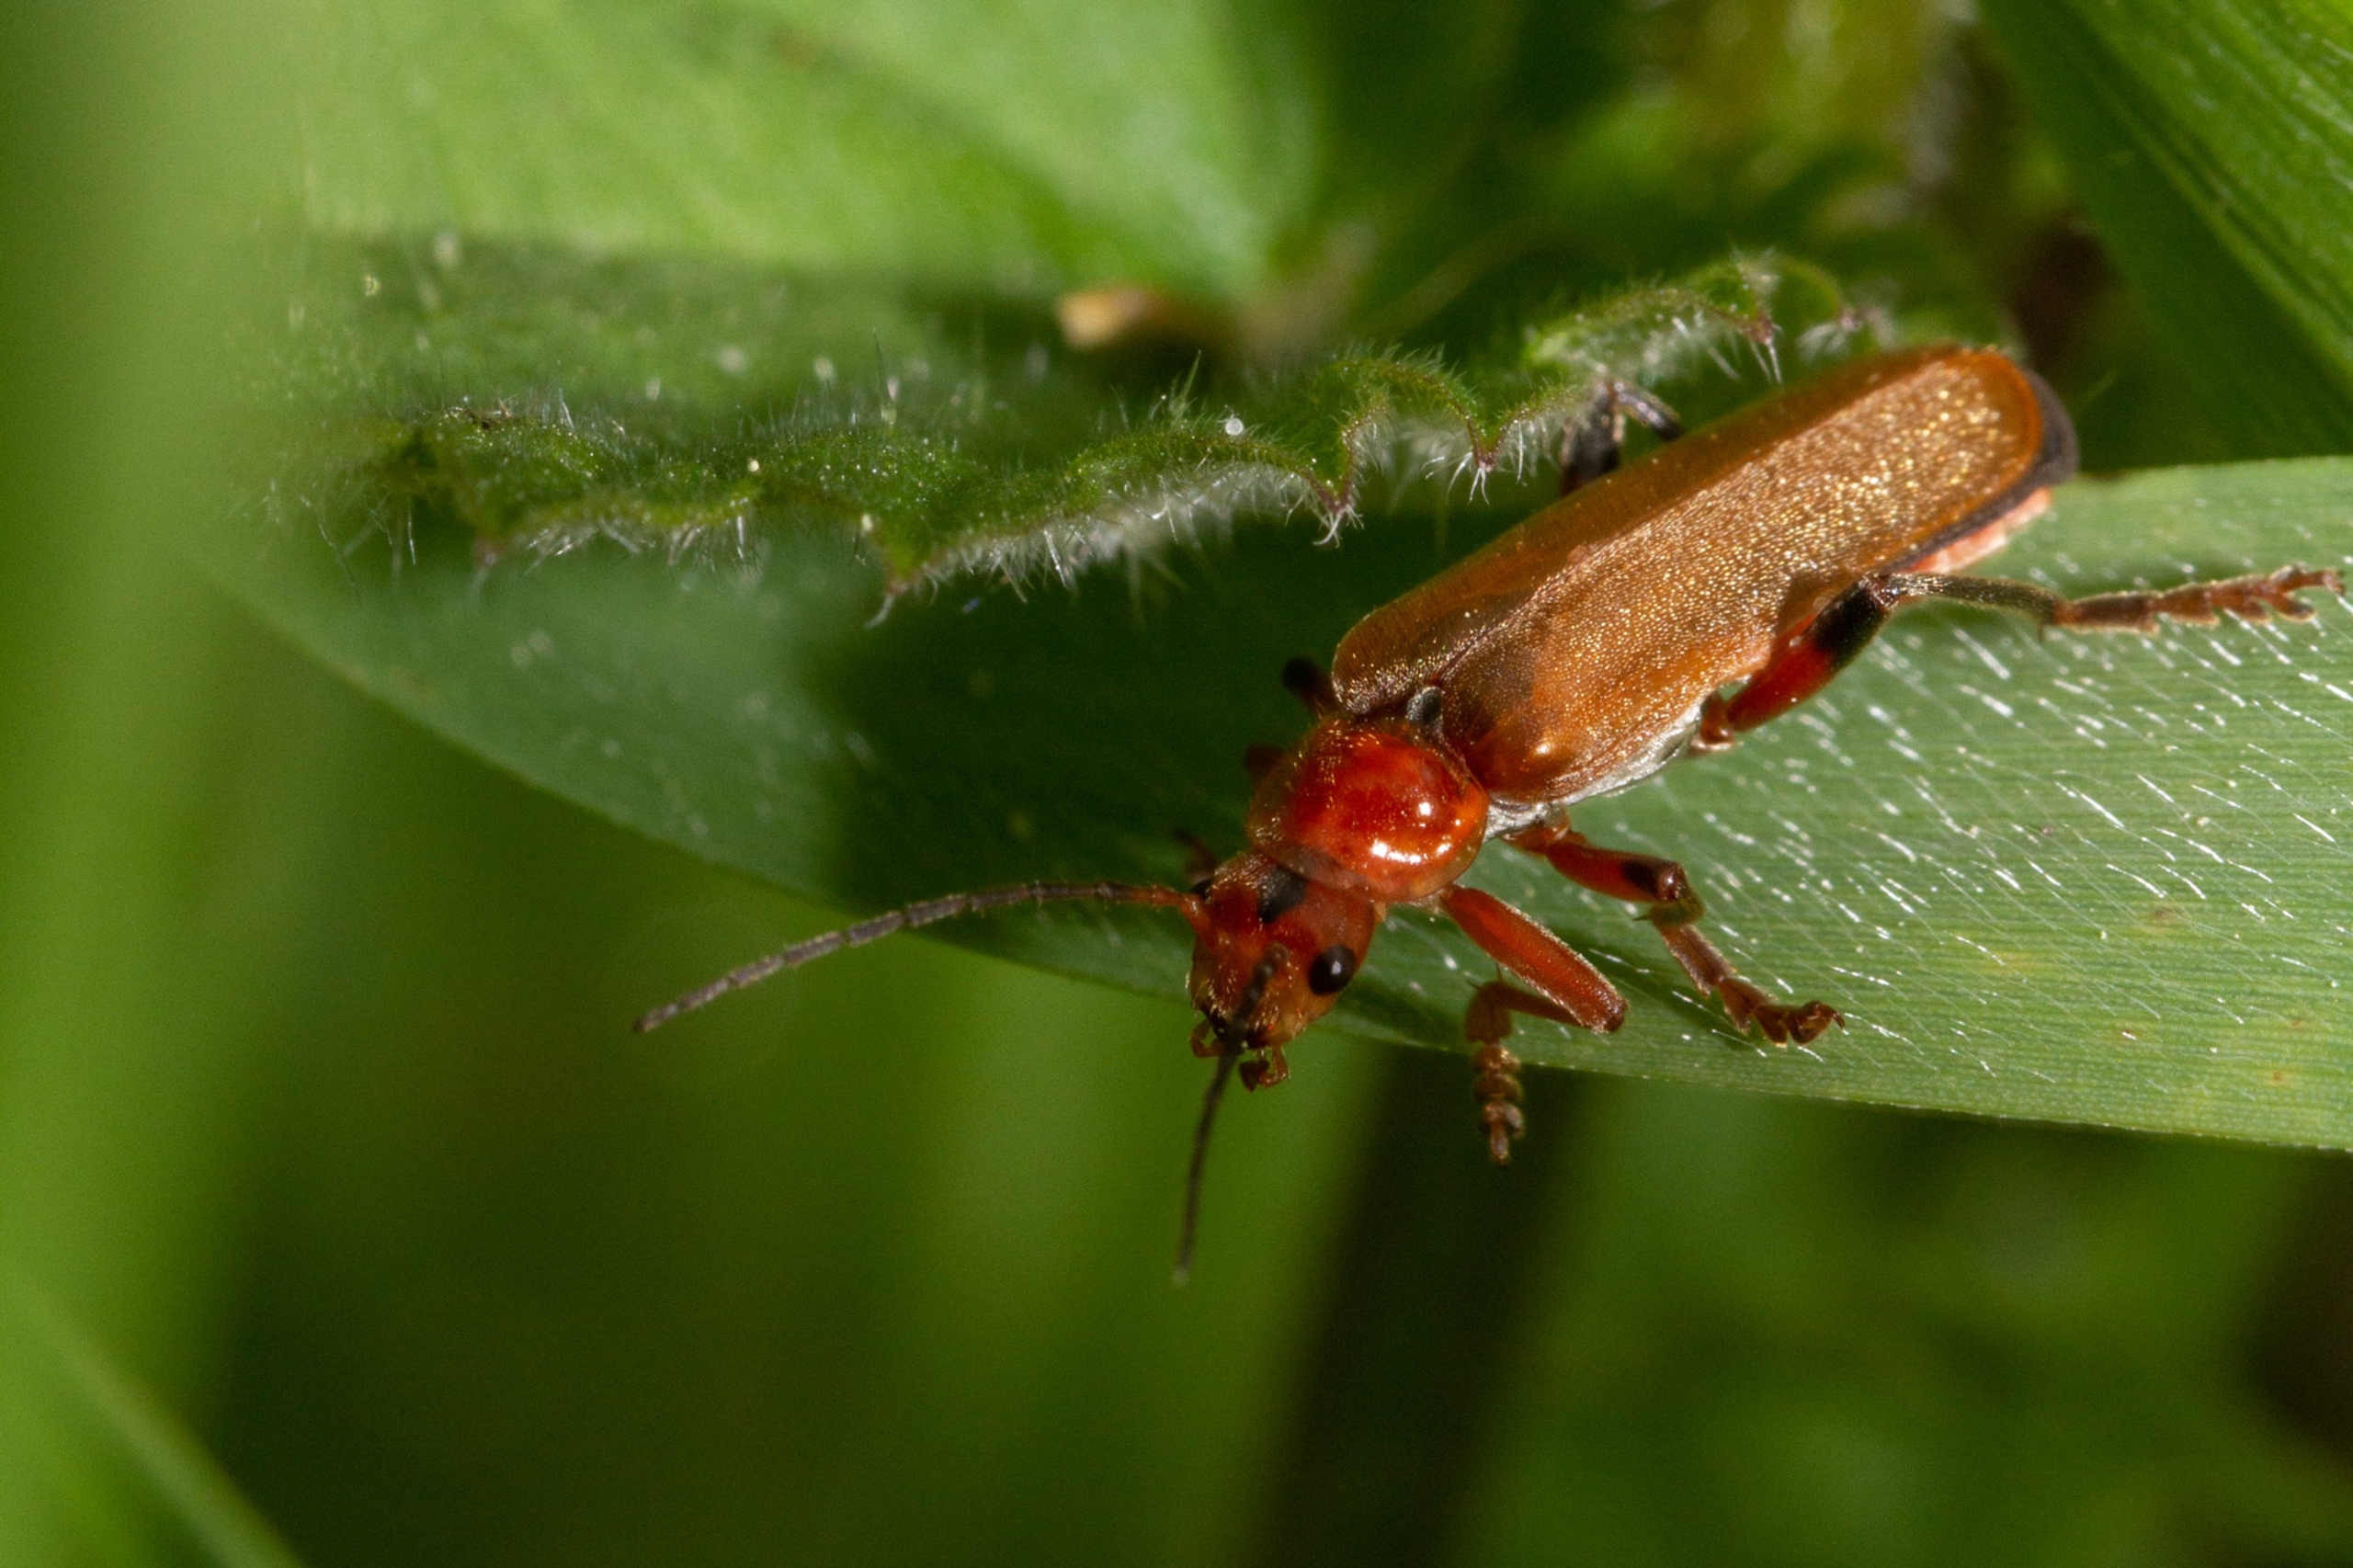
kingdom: Animalia
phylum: Arthropoda
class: Insecta
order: Coleoptera
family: Cantharidae
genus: Cantharis
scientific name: Cantharis livida
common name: Gul blødvinge
